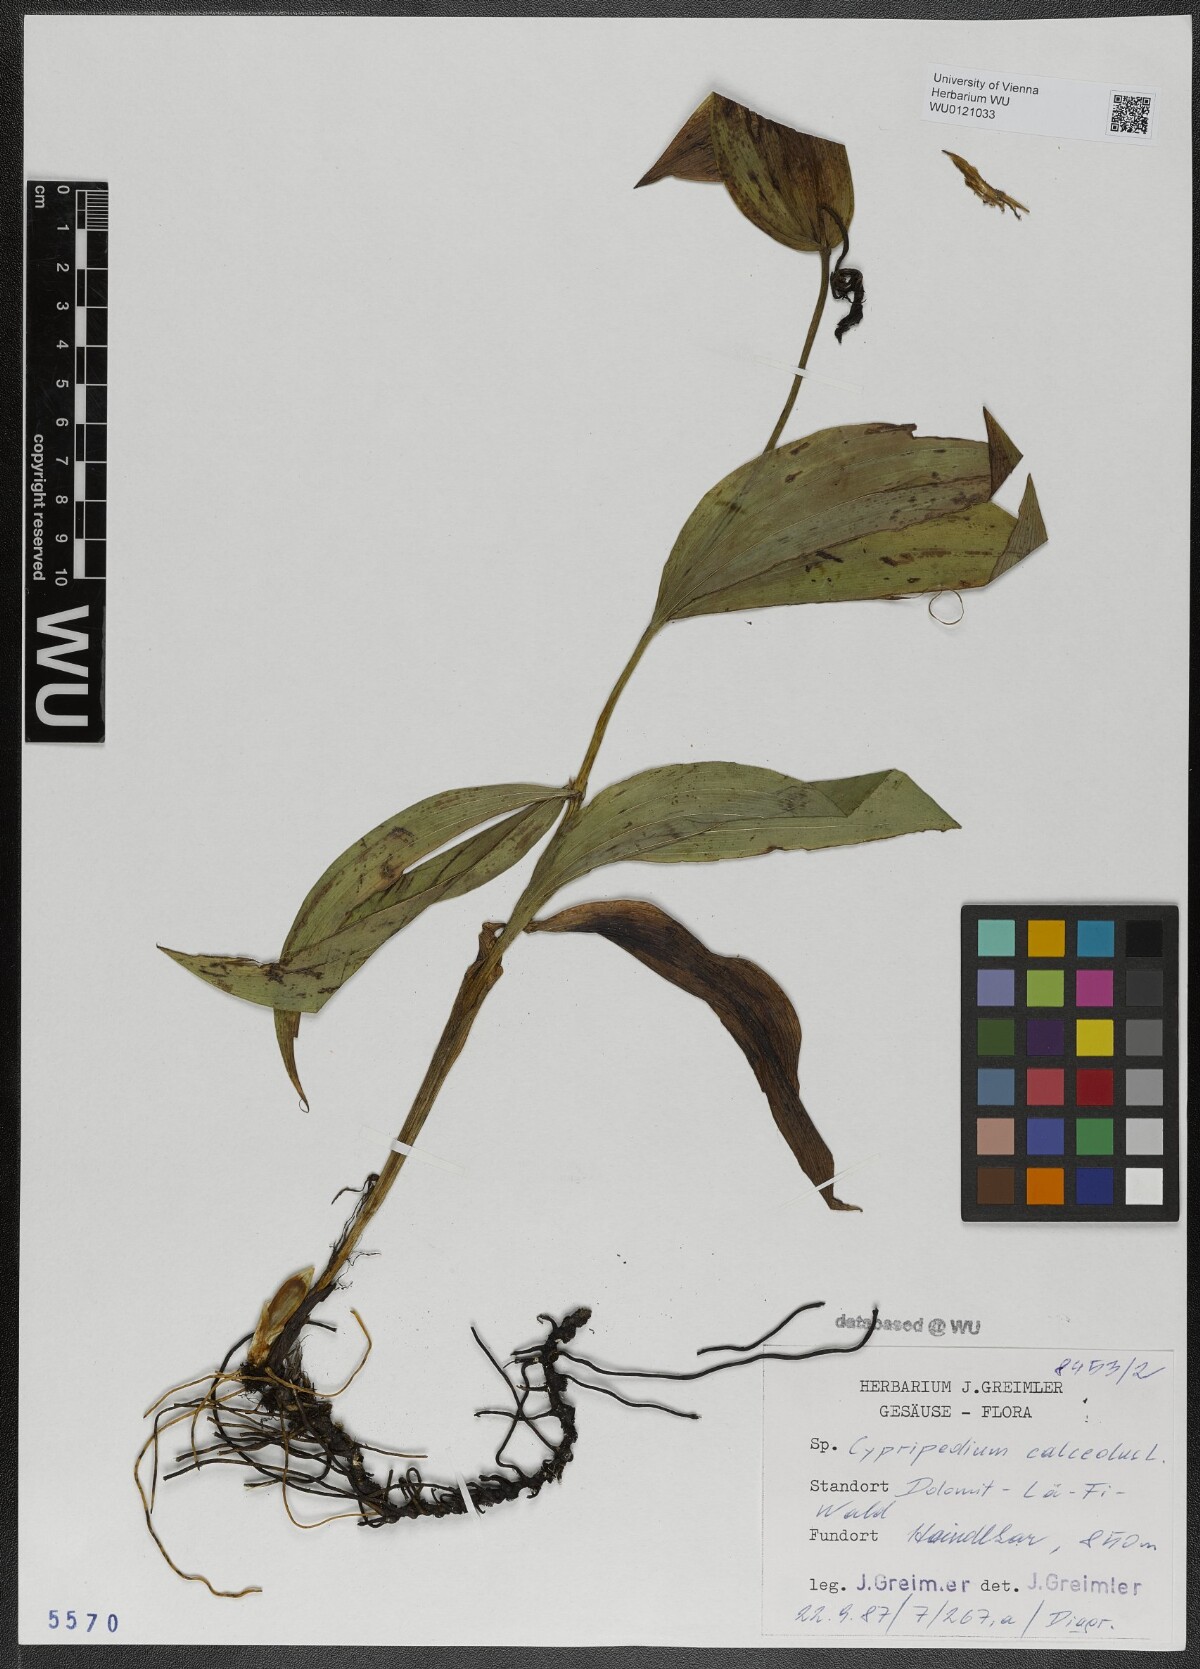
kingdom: Plantae
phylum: Tracheophyta
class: Liliopsida
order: Asparagales
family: Orchidaceae
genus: Cypripedium
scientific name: Cypripedium calceolus
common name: Lady's-slipper
